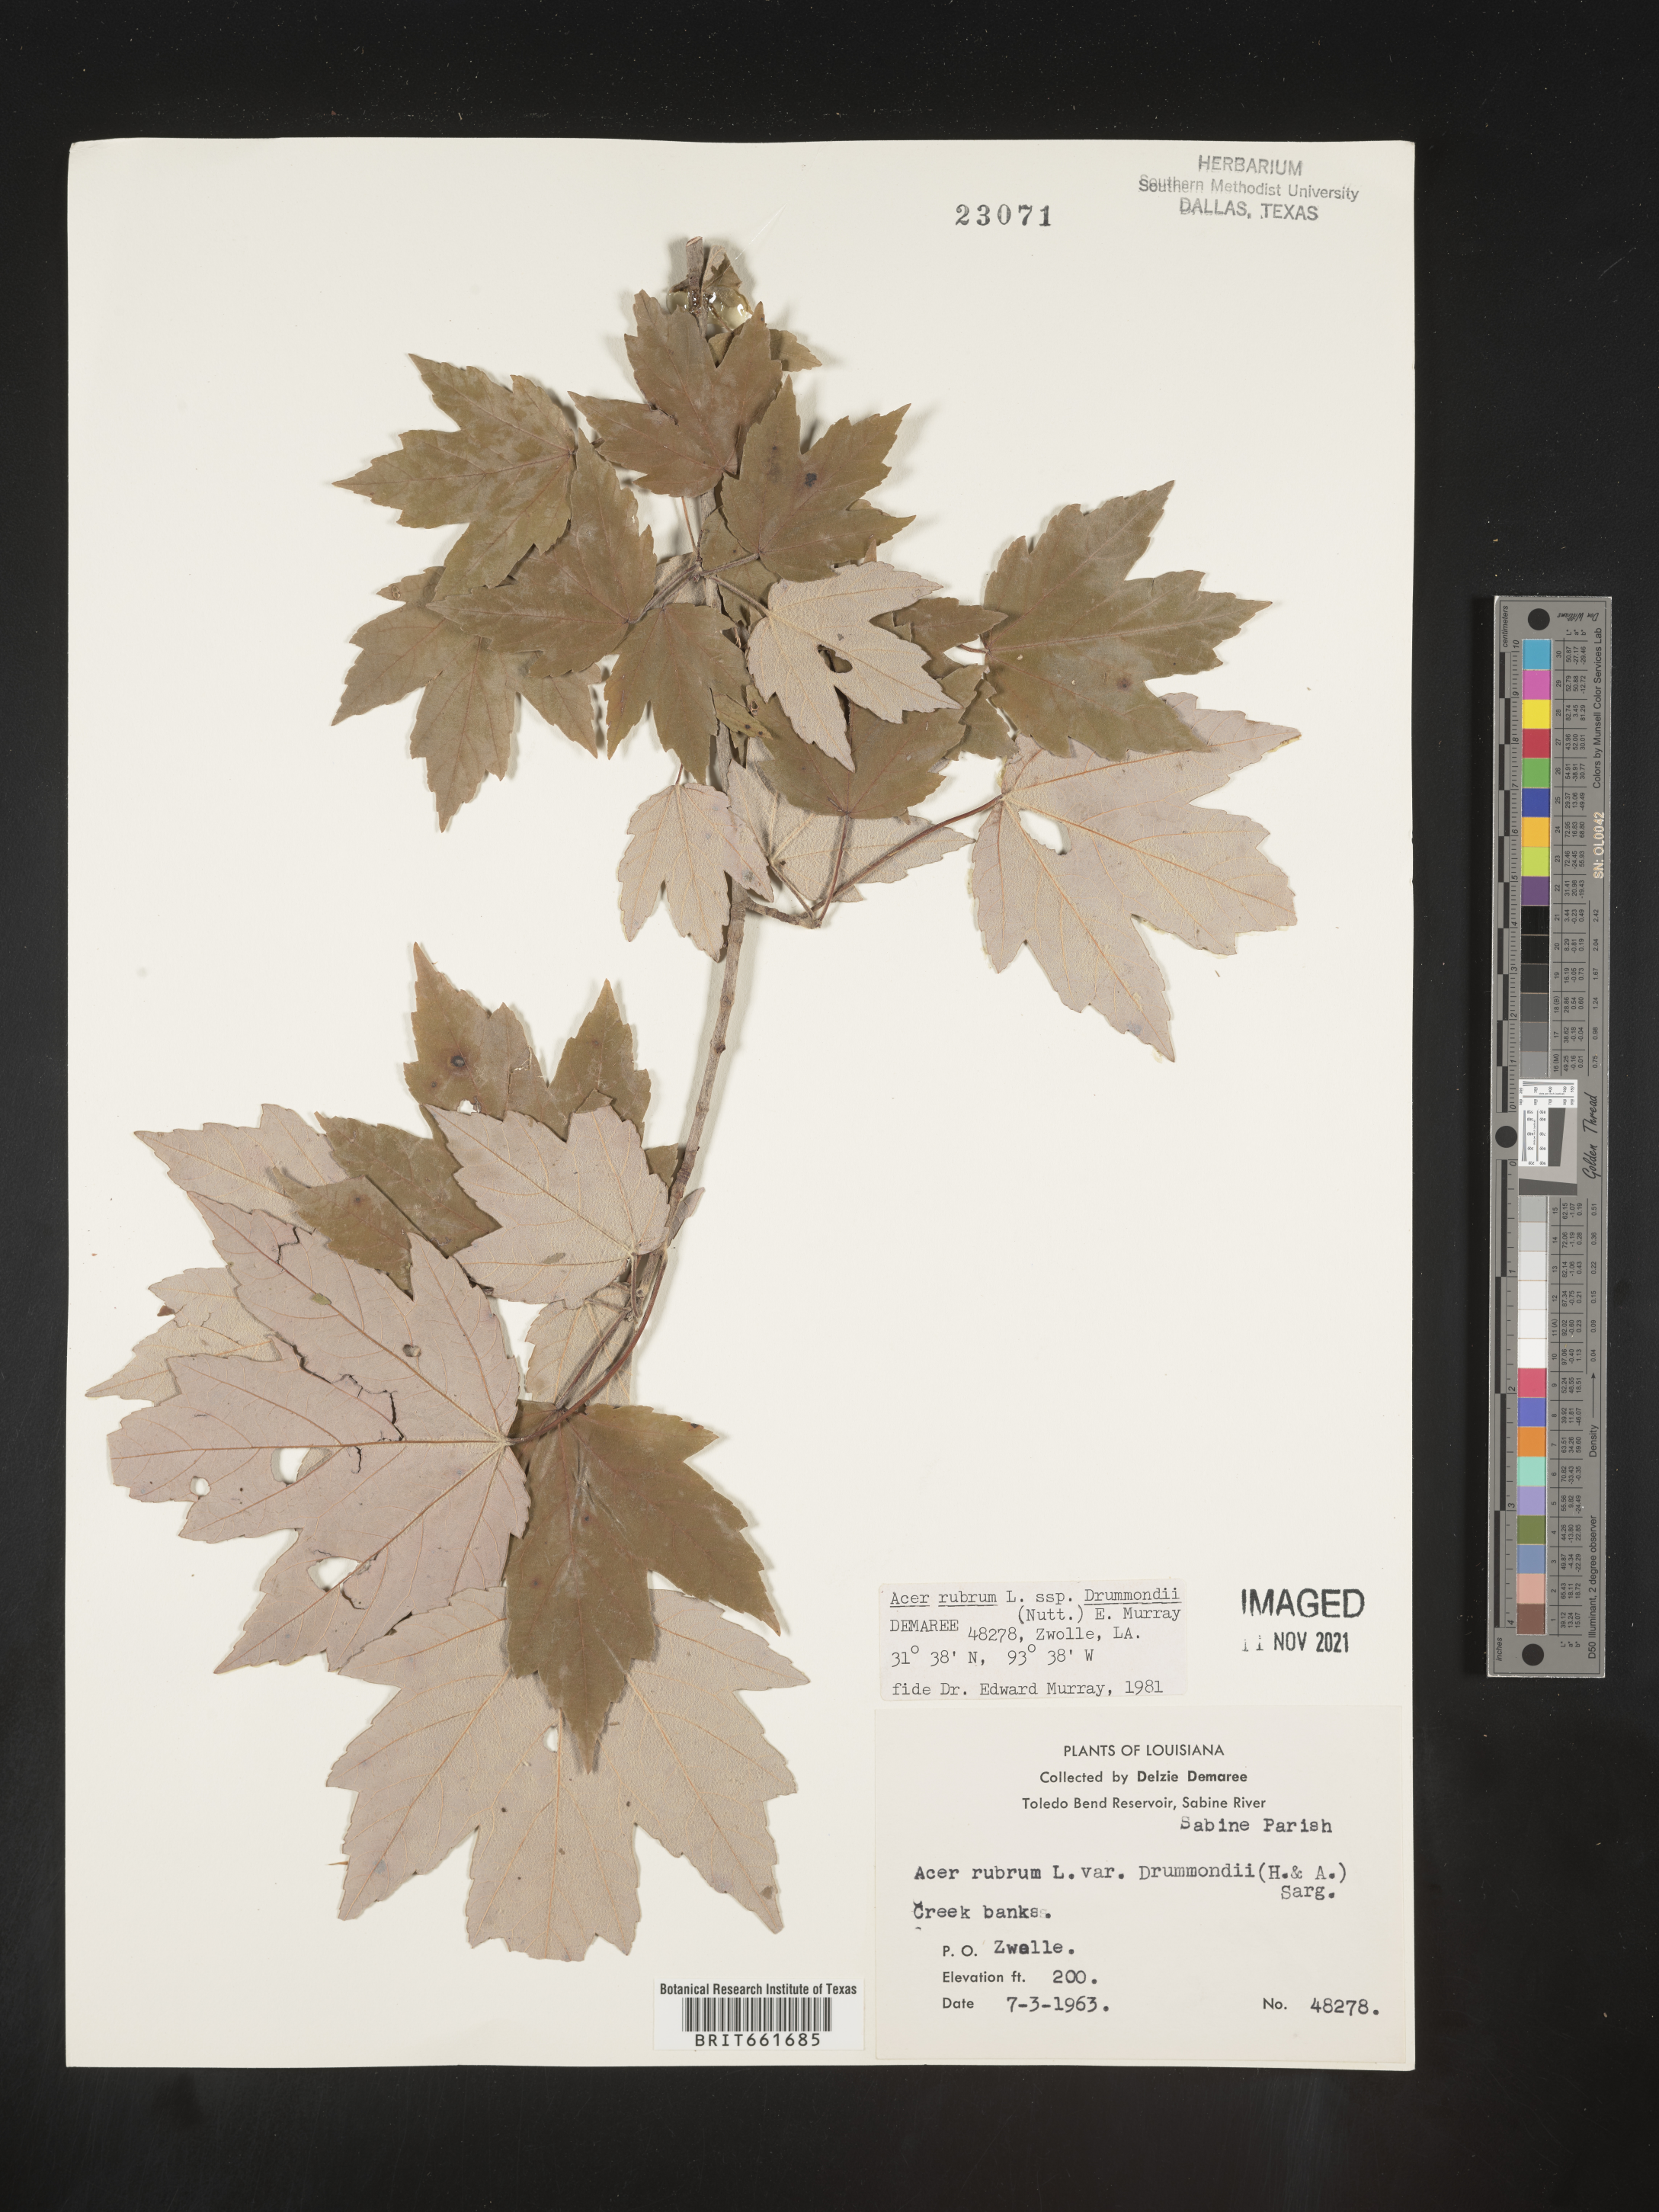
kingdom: Plantae
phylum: Tracheophyta
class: Magnoliopsida
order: Sapindales
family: Sapindaceae
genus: Acer
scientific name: Acer rubrum
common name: Red maple
